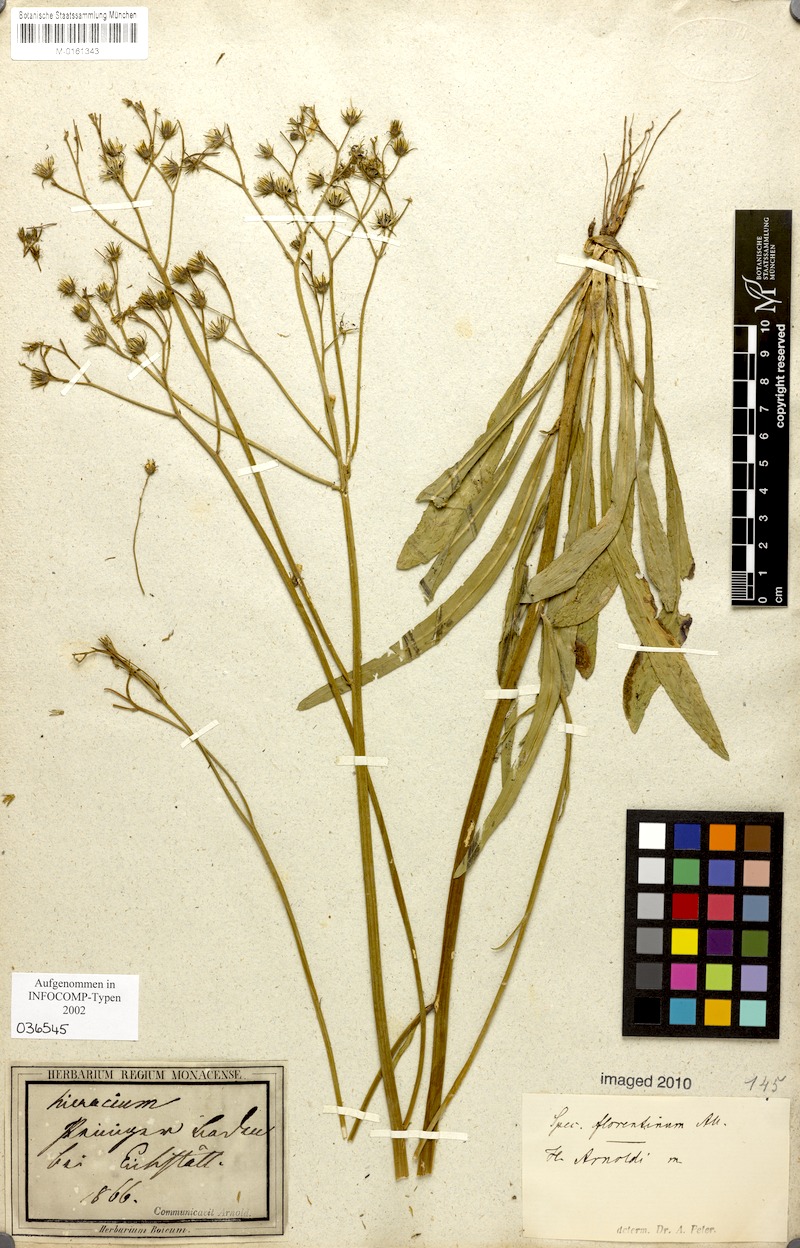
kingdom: Plantae
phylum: Tracheophyta
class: Magnoliopsida
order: Asterales
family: Asteraceae
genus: Pilosella
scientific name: Pilosella piloselloides
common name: Glaucous king-devil
